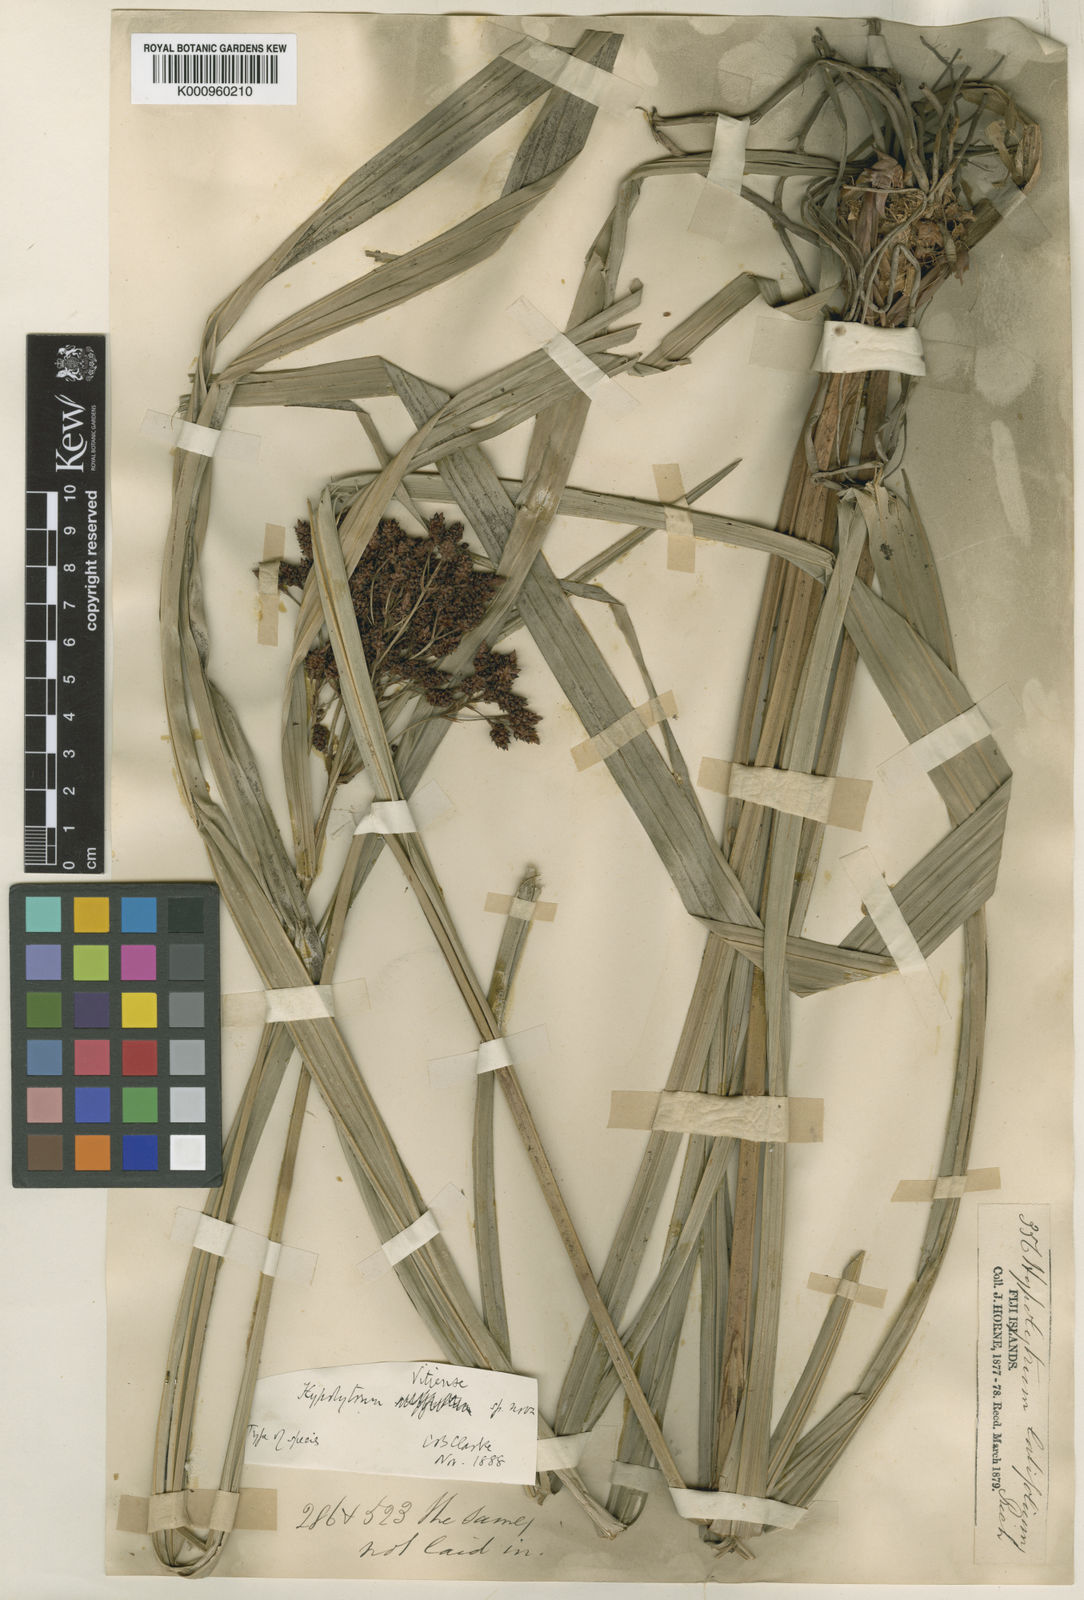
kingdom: Plantae
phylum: Tracheophyta
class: Liliopsida
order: Poales
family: Cyperaceae
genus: Hypolytrum
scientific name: Hypolytrum nemorum
